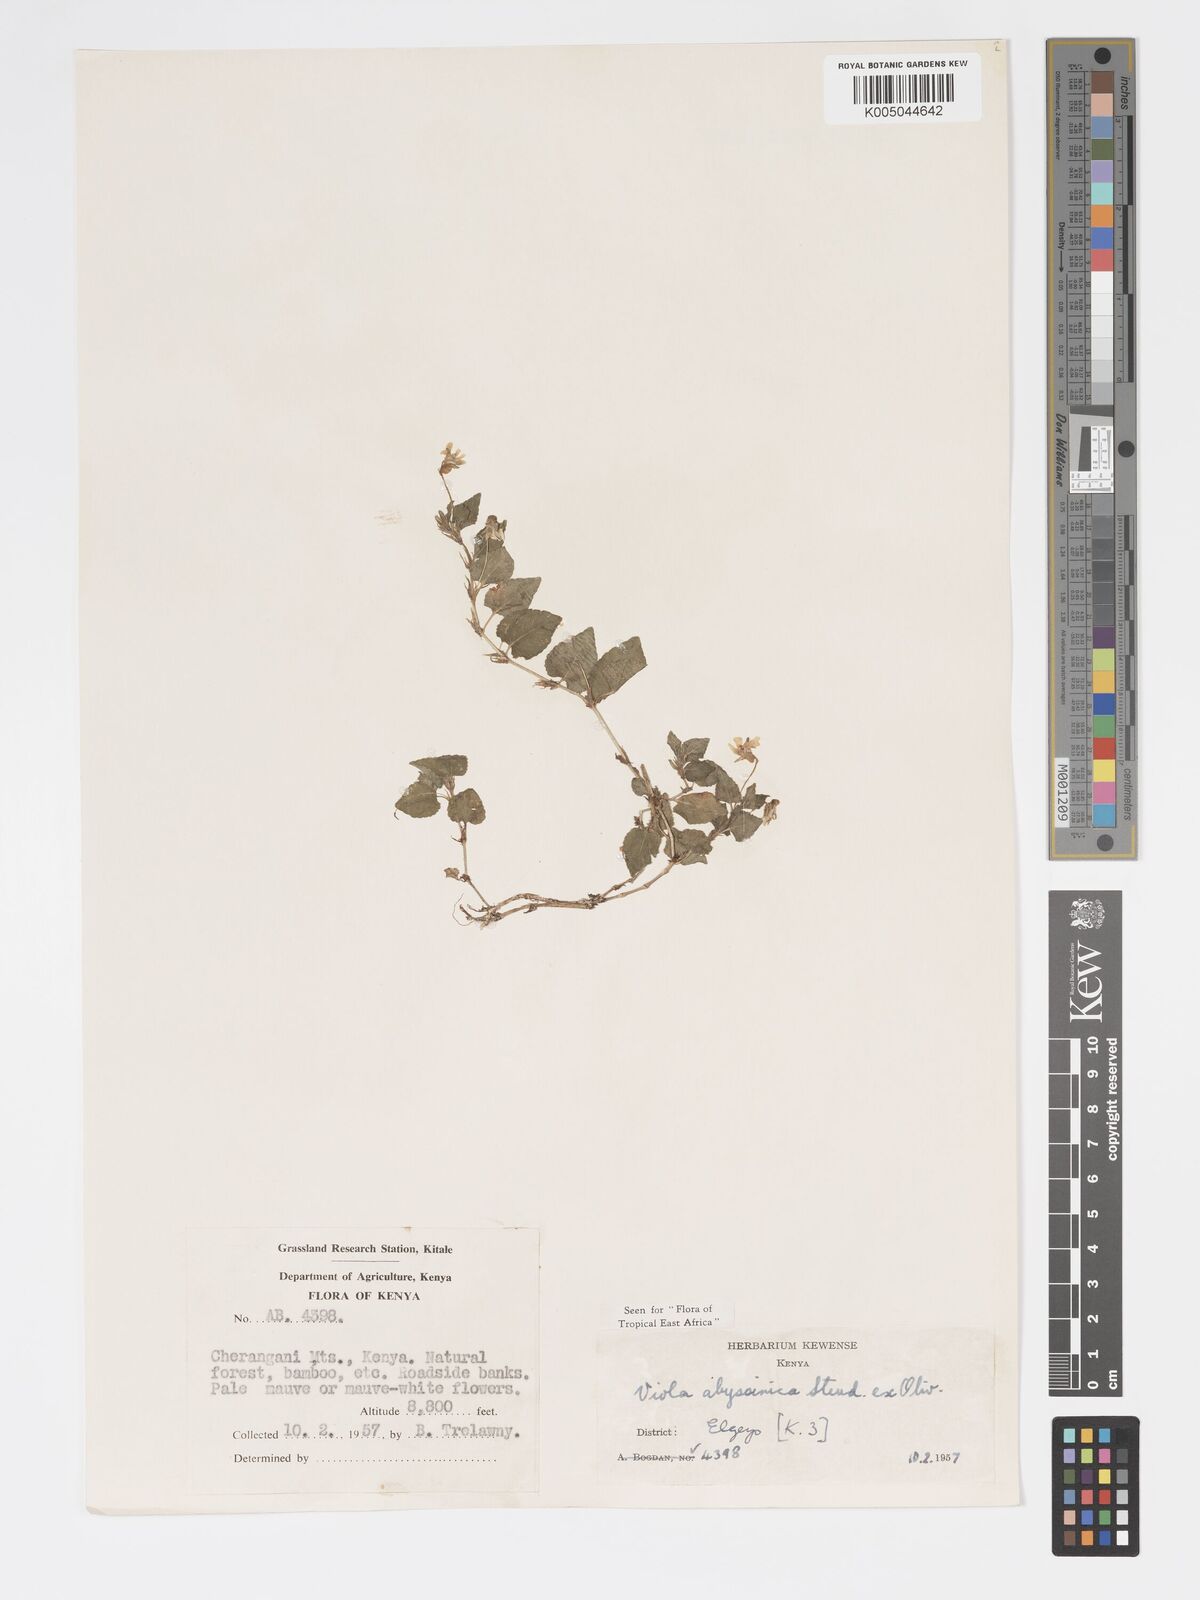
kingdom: Plantae
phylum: Tracheophyta
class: Magnoliopsida
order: Malpighiales
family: Violaceae
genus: Viola
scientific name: Viola abyssinica
